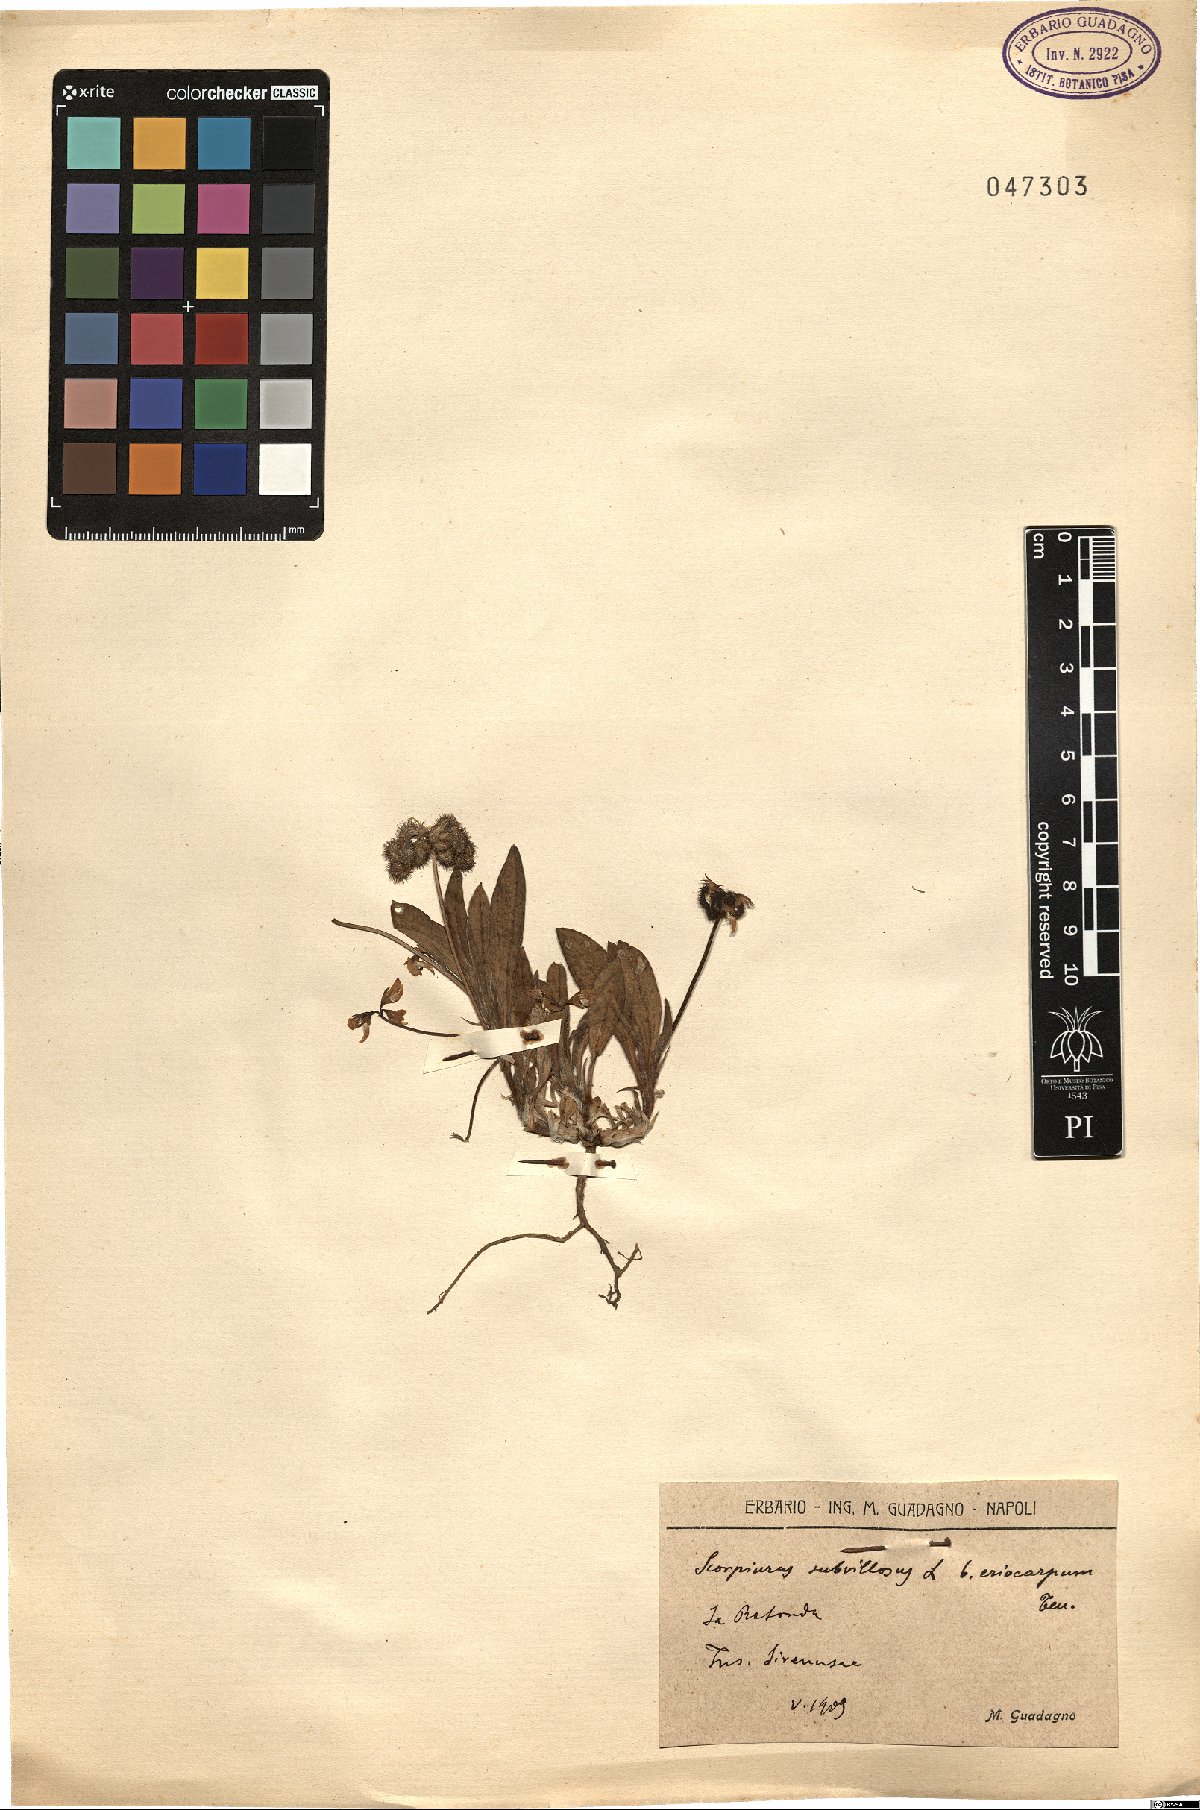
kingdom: Plantae
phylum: Tracheophyta
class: Magnoliopsida
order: Fabales
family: Fabaceae
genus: Scorpiurus
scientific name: Scorpiurus subvillosus
